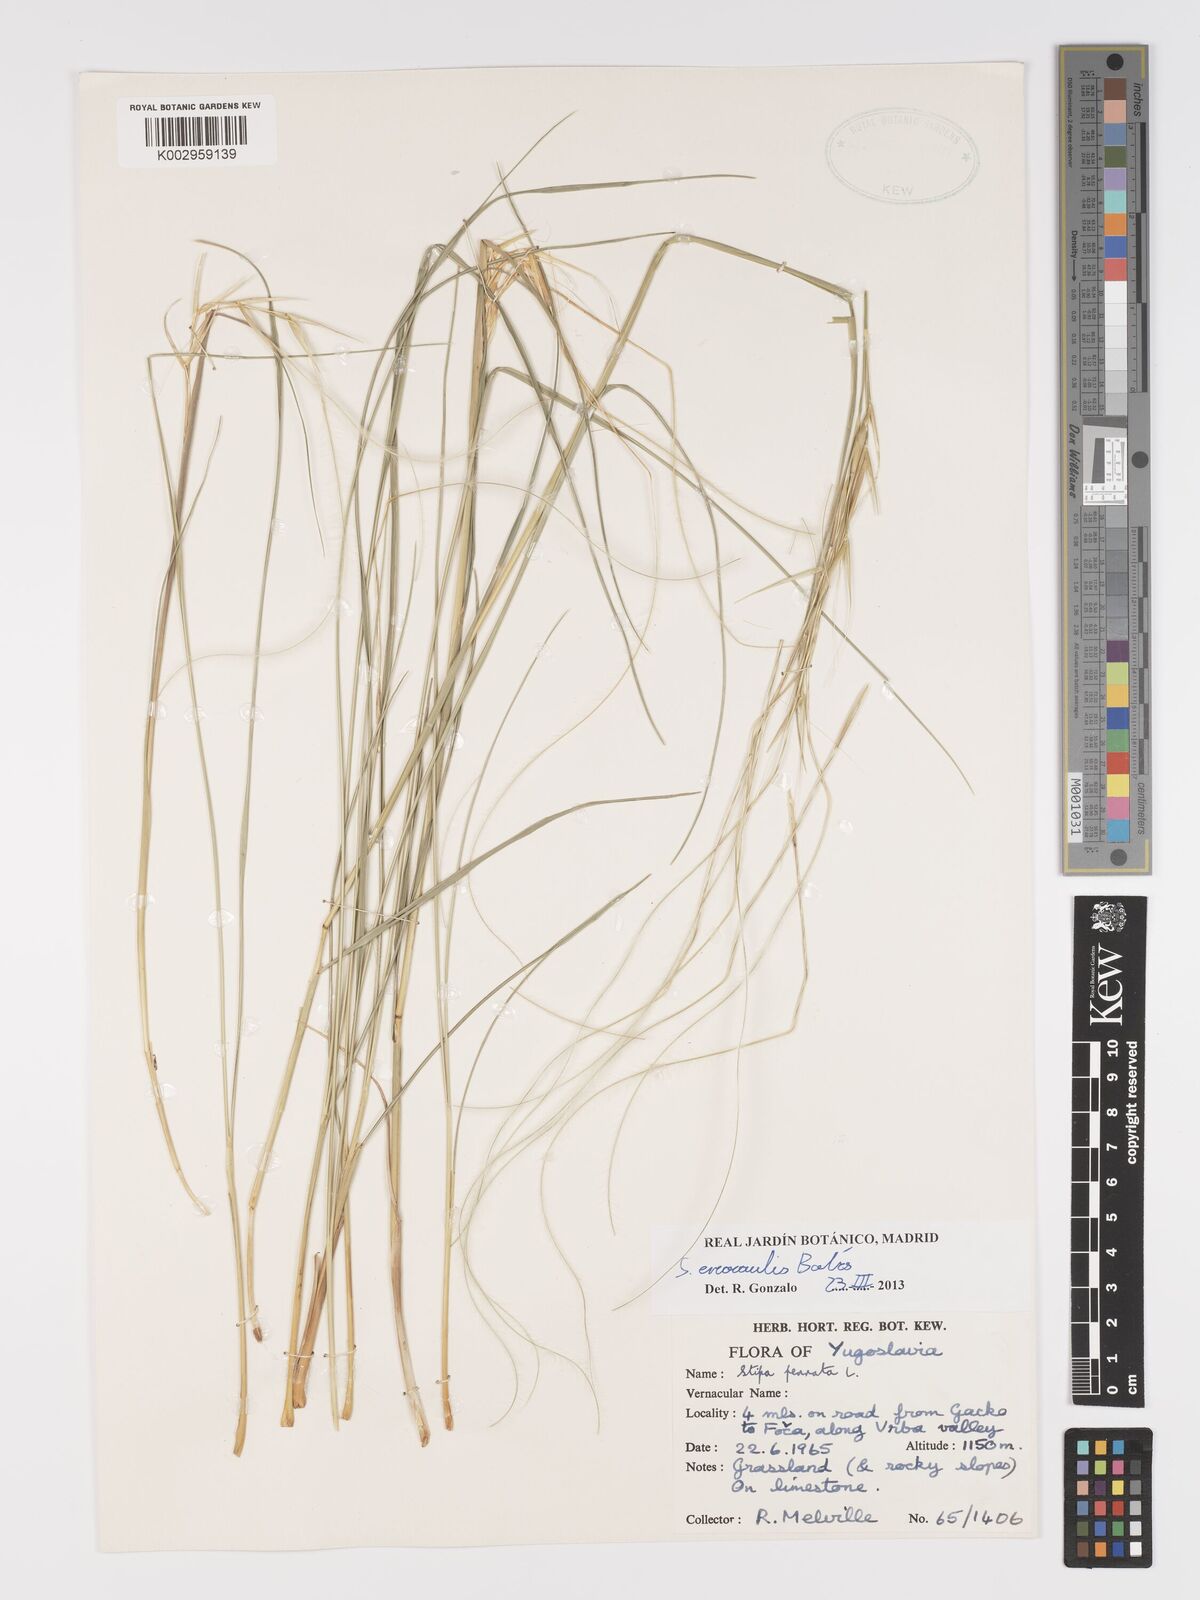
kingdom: Plantae
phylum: Tracheophyta
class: Liliopsida
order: Poales
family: Poaceae
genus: Stipa
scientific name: Stipa pennata
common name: European feather grass
